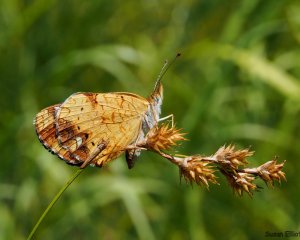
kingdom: Animalia
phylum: Arthropoda
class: Insecta
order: Lepidoptera
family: Nymphalidae
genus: Phyciodes
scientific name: Phyciodes tharos
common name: Pearl Crescent
